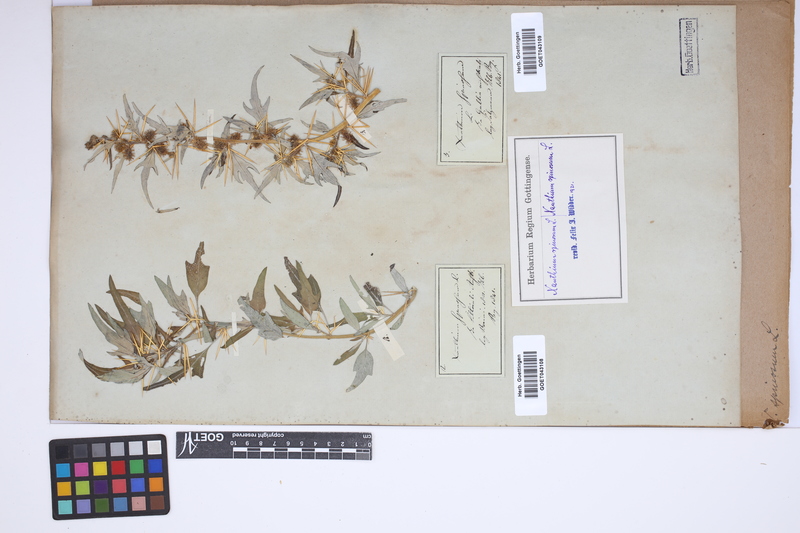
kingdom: Plantae
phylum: Tracheophyta
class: Magnoliopsida
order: Asterales
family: Asteraceae
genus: Xanthium
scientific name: Xanthium spinosum
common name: Spiny cocklebur
